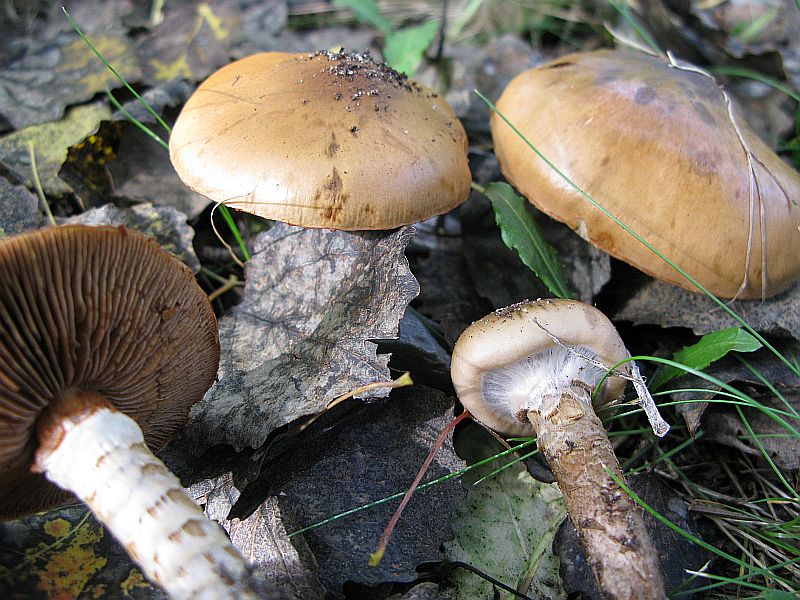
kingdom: Fungi
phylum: Basidiomycota
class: Agaricomycetes
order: Agaricales
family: Cortinariaceae
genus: Cortinarius
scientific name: Cortinarius trivialis
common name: brunslimet slørhat
